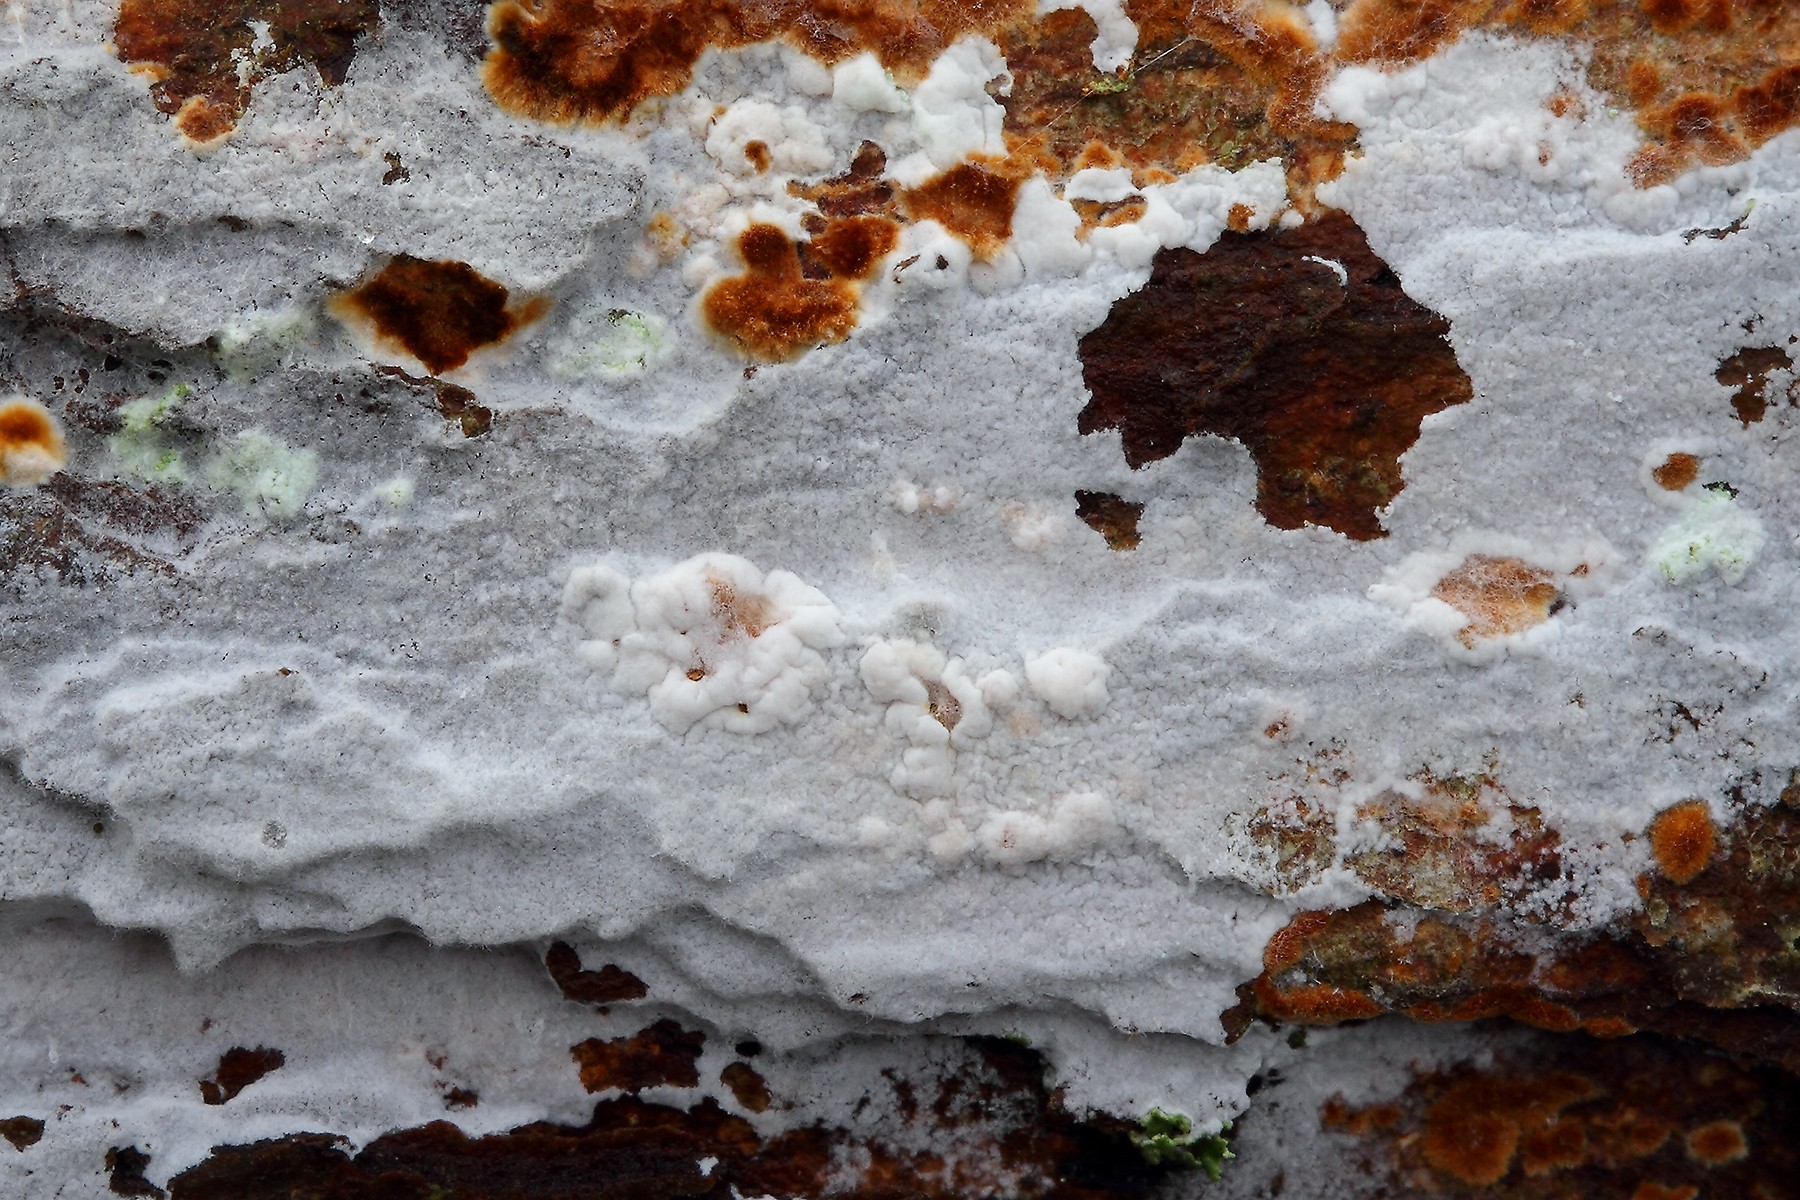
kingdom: Fungi
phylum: Basidiomycota
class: Agaricomycetes
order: Atheliales
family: Atheliaceae
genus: Athelia
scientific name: Athelia epiphylla
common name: almindelig barkhinde
